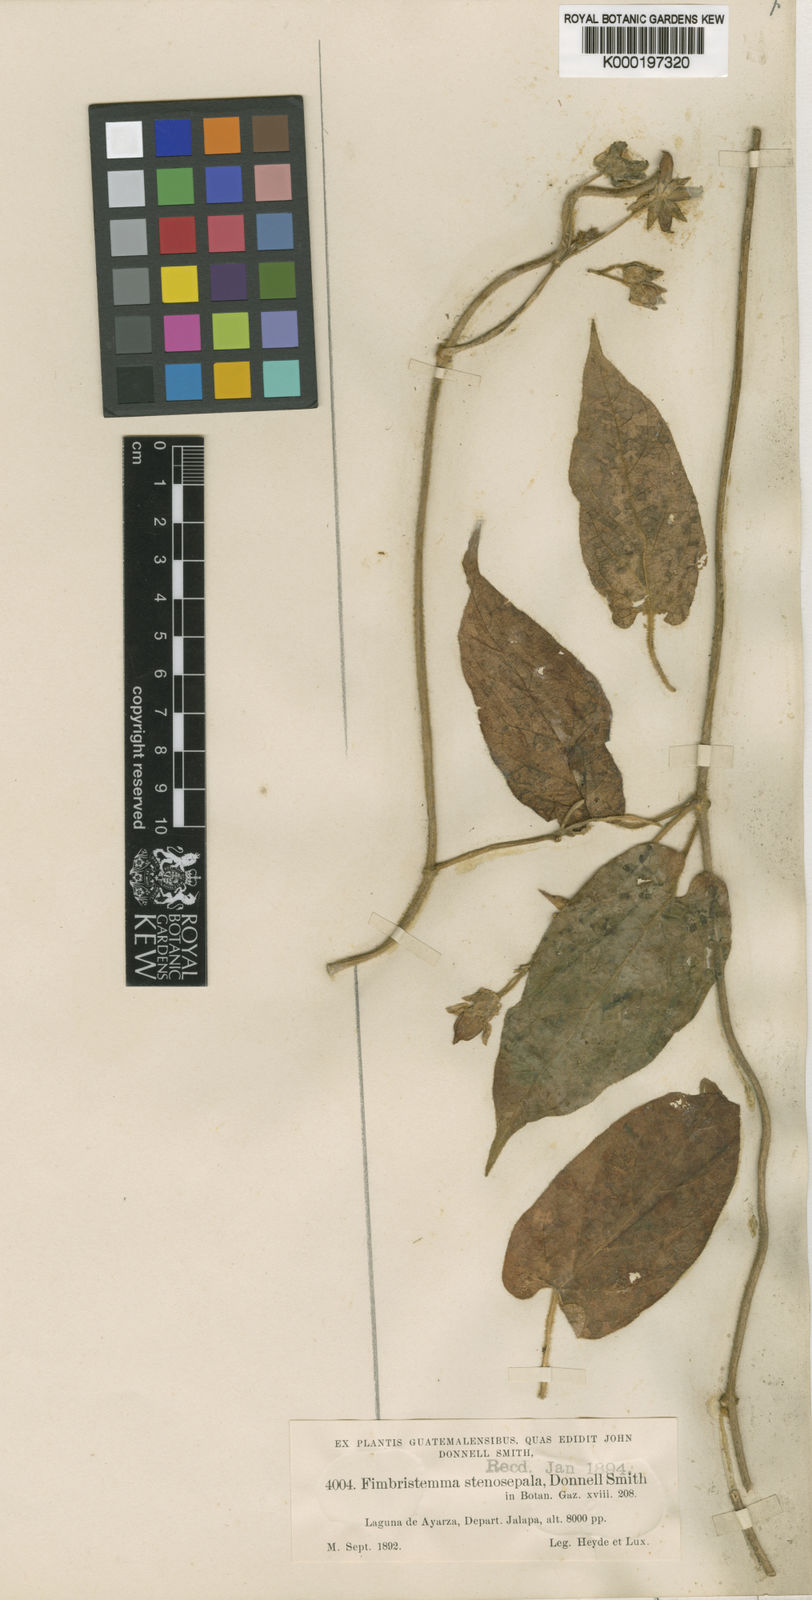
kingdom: Plantae
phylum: Tracheophyta
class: Magnoliopsida
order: Gentianales
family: Apocynaceae
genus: Gonolobus
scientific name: Gonolobus stenosepalus
